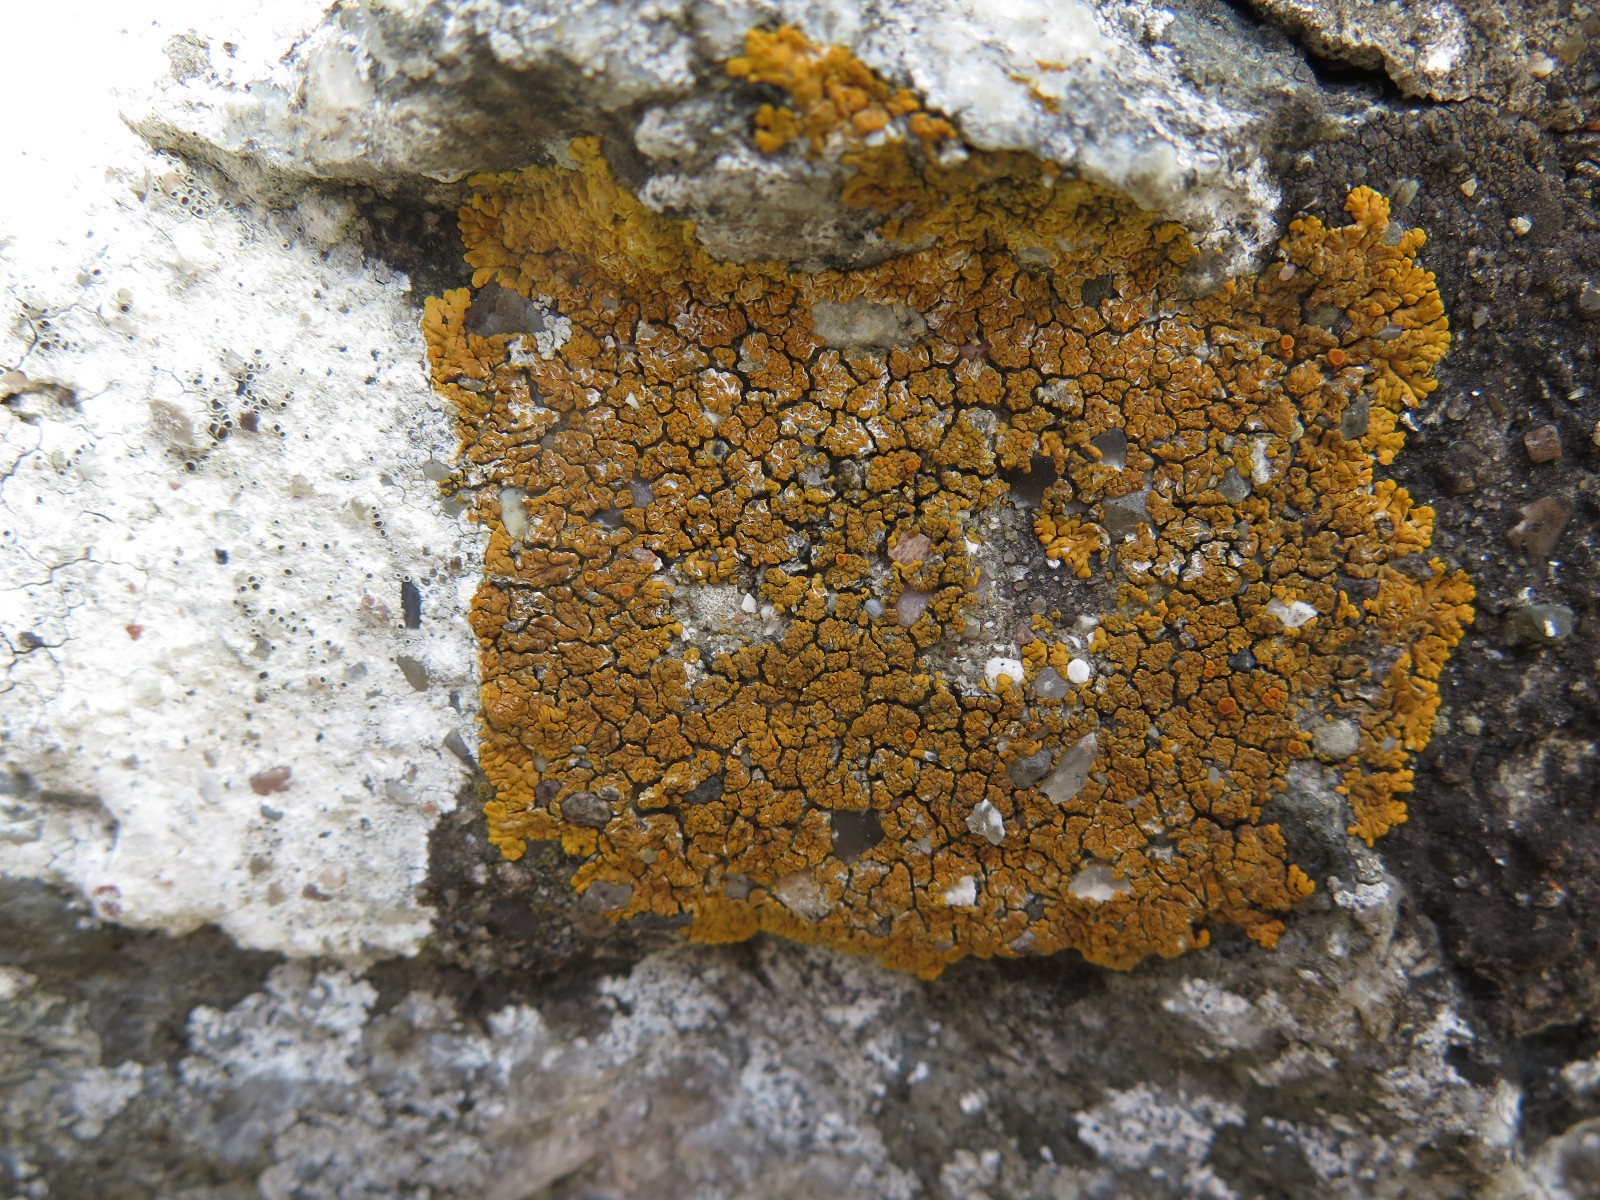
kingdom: Fungi
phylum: Ascomycota
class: Lecanoromycetes
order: Teloschistales
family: Teloschistaceae
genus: Variospora
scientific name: Variospora flavescens
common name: kalk-orangelav
